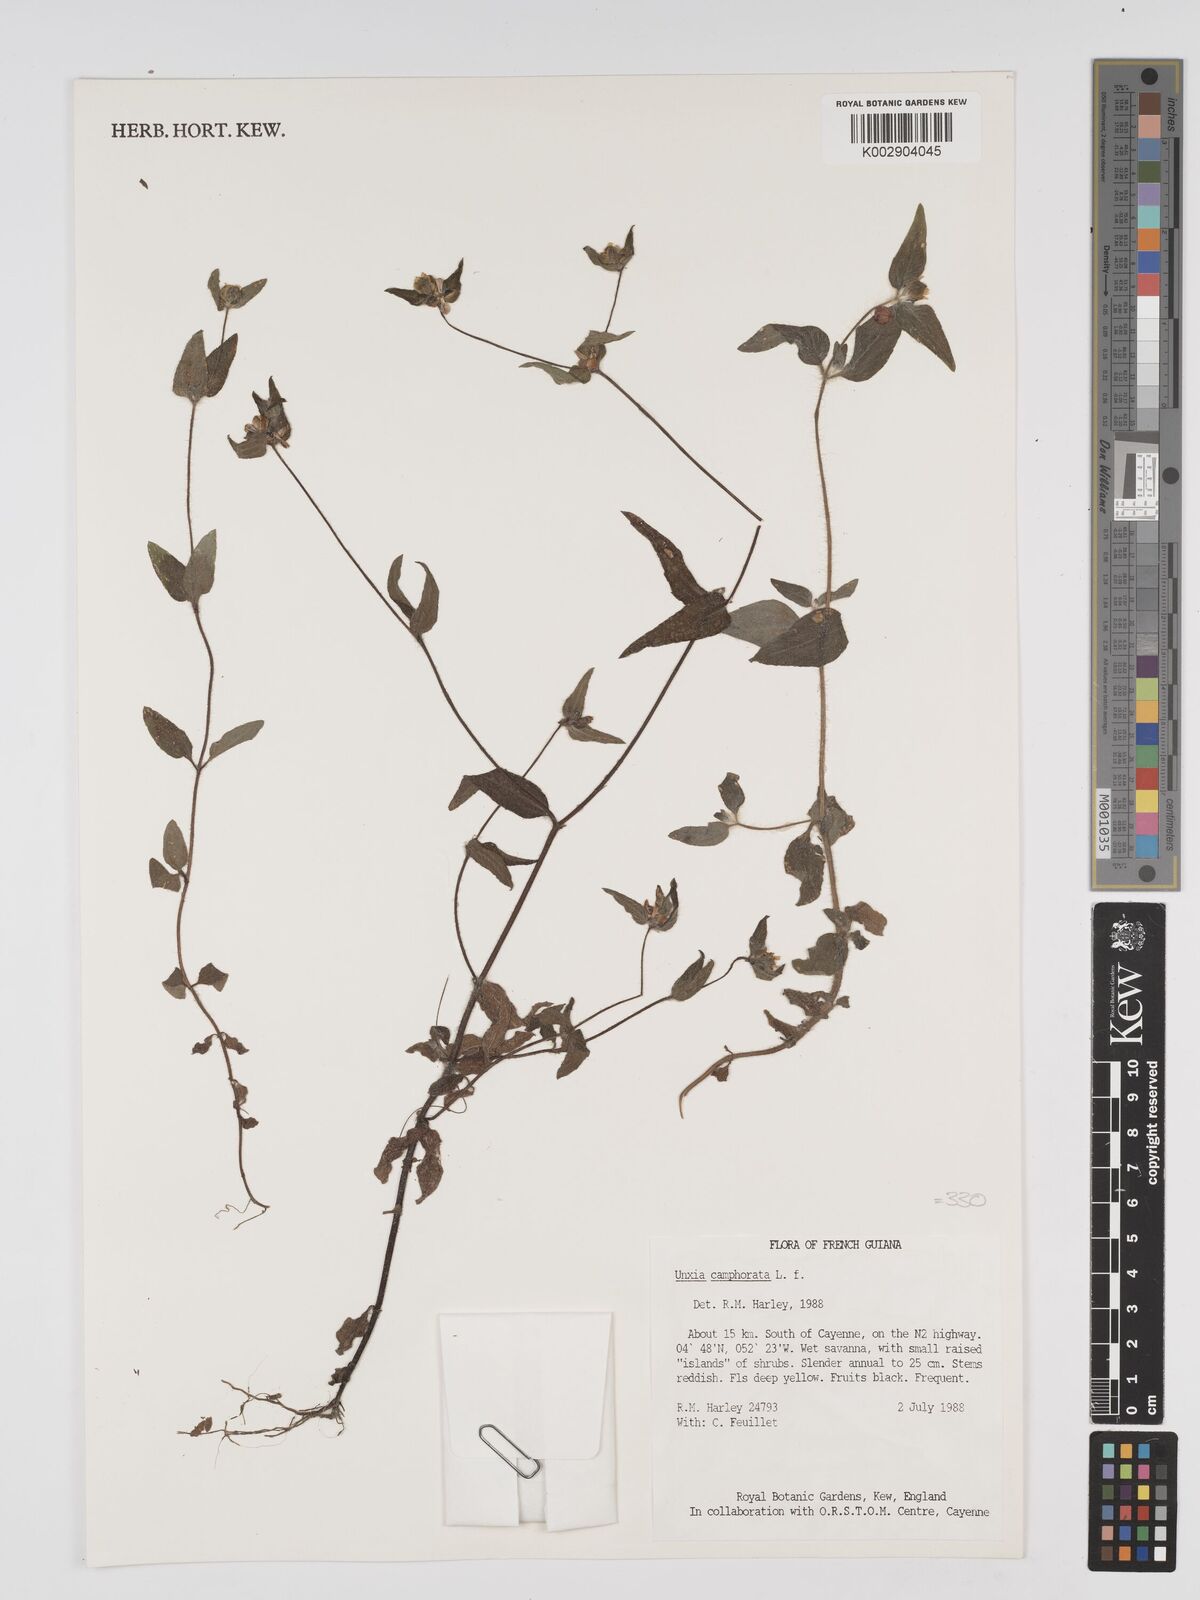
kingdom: Plantae
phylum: Tracheophyta
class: Magnoliopsida
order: Asterales
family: Asteraceae
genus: Unxia
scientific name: Unxia camphorata
